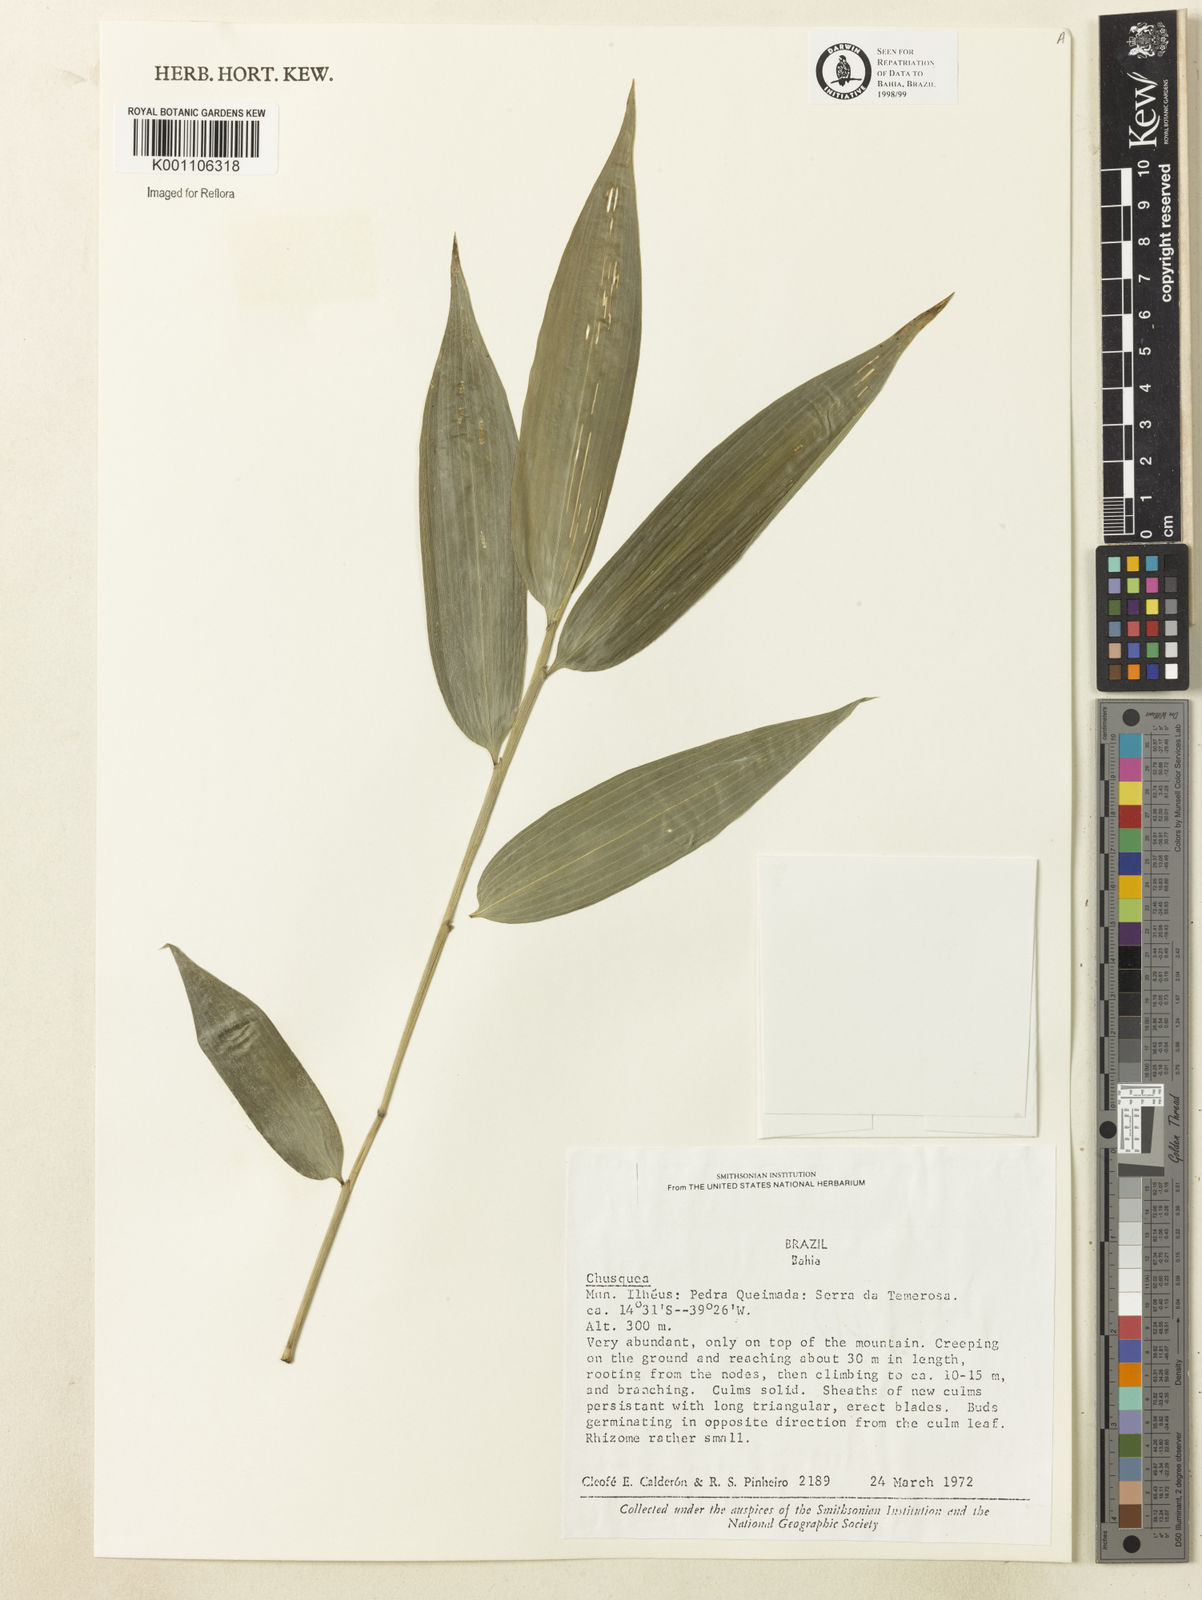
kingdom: Plantae
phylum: Tracheophyta
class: Liliopsida
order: Poales
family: Poaceae
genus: Chusquea
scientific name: Chusquea
